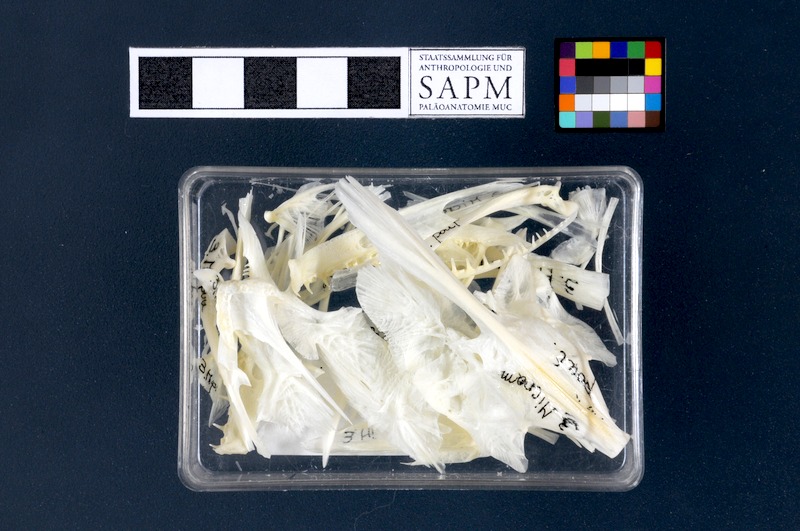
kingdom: Animalia
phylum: Chordata
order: Gadiformes
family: Gadidae
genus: Micromesistius
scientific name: Micromesistius poutassou
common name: Blue whiting
